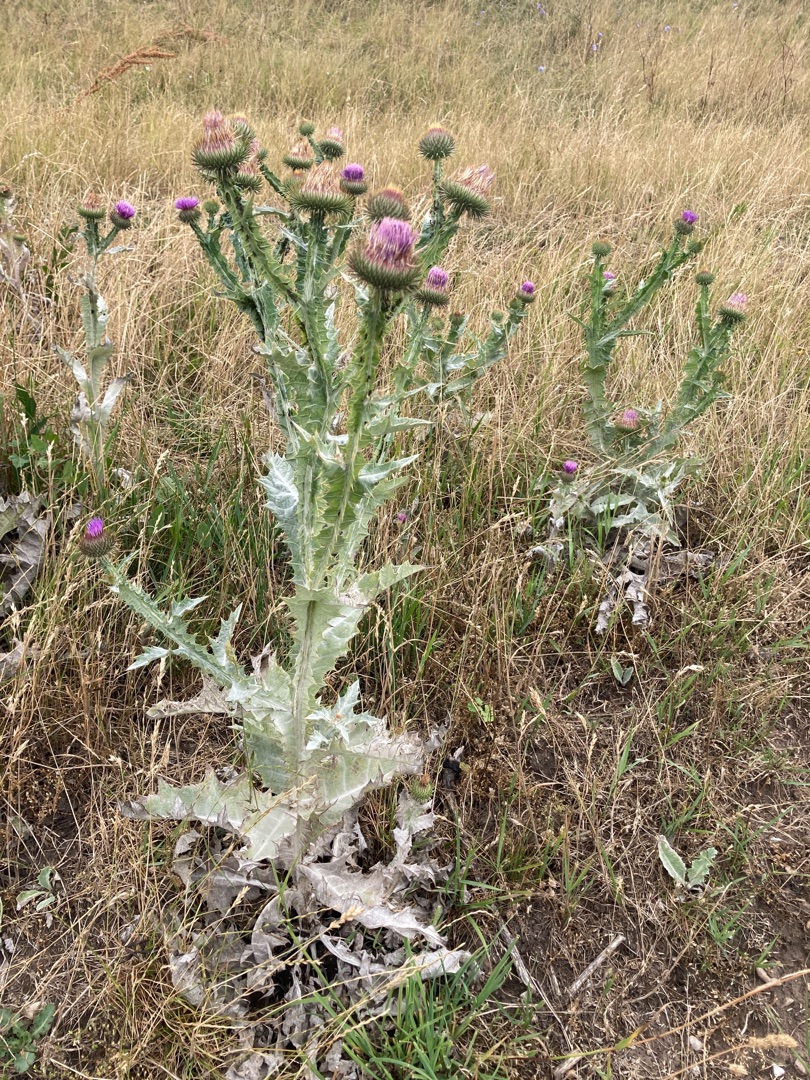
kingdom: Plantae
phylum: Tracheophyta
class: Magnoliopsida
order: Asterales
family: Asteraceae
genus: Onopordum
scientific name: Onopordum acanthium
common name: Æselfoder
